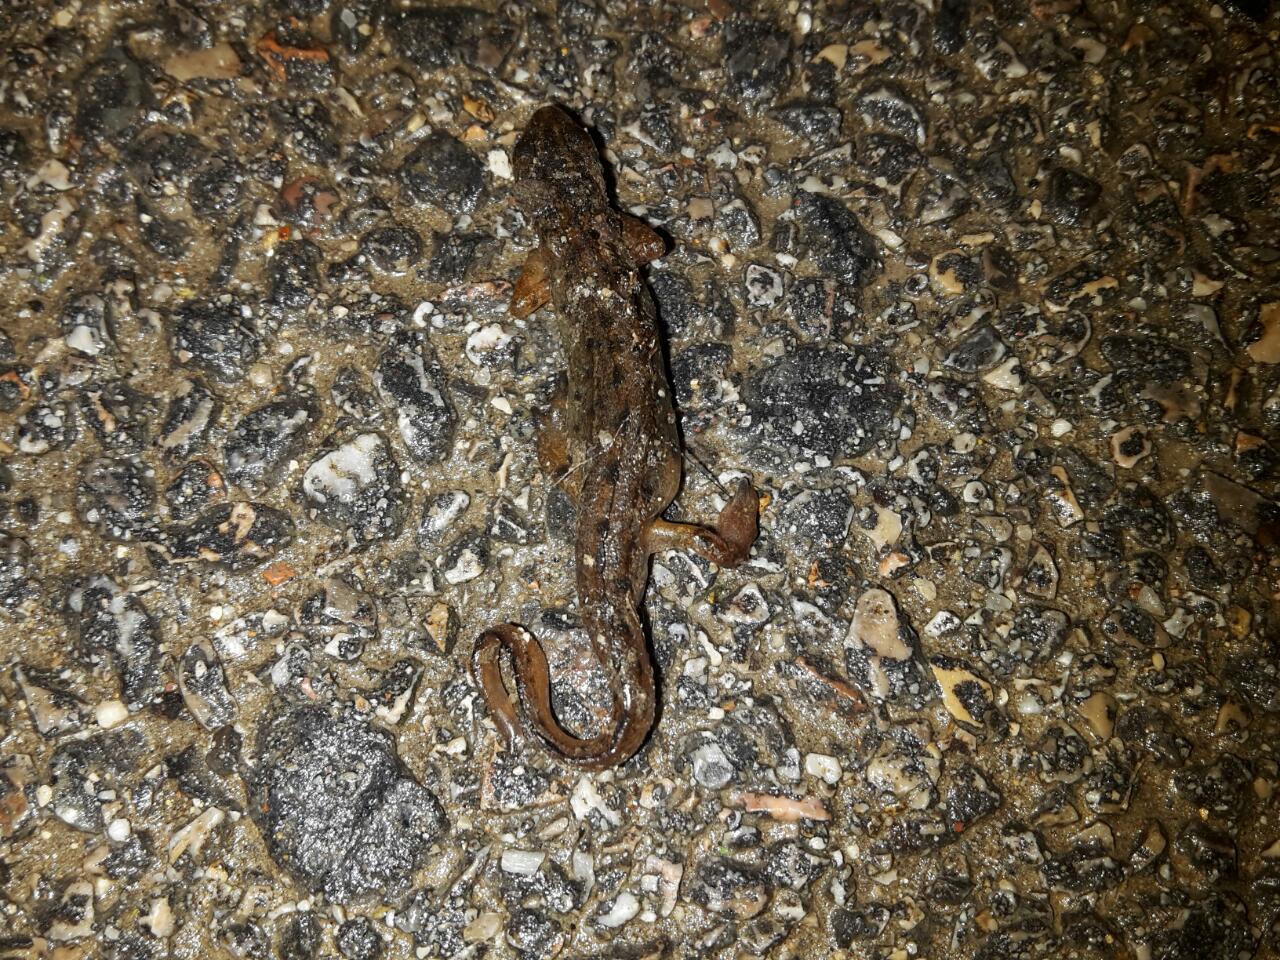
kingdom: Animalia
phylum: Chordata
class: Amphibia
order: Caudata
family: Salamandridae
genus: Lissotriton
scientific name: Lissotriton vulgaris
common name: Smooth newt
